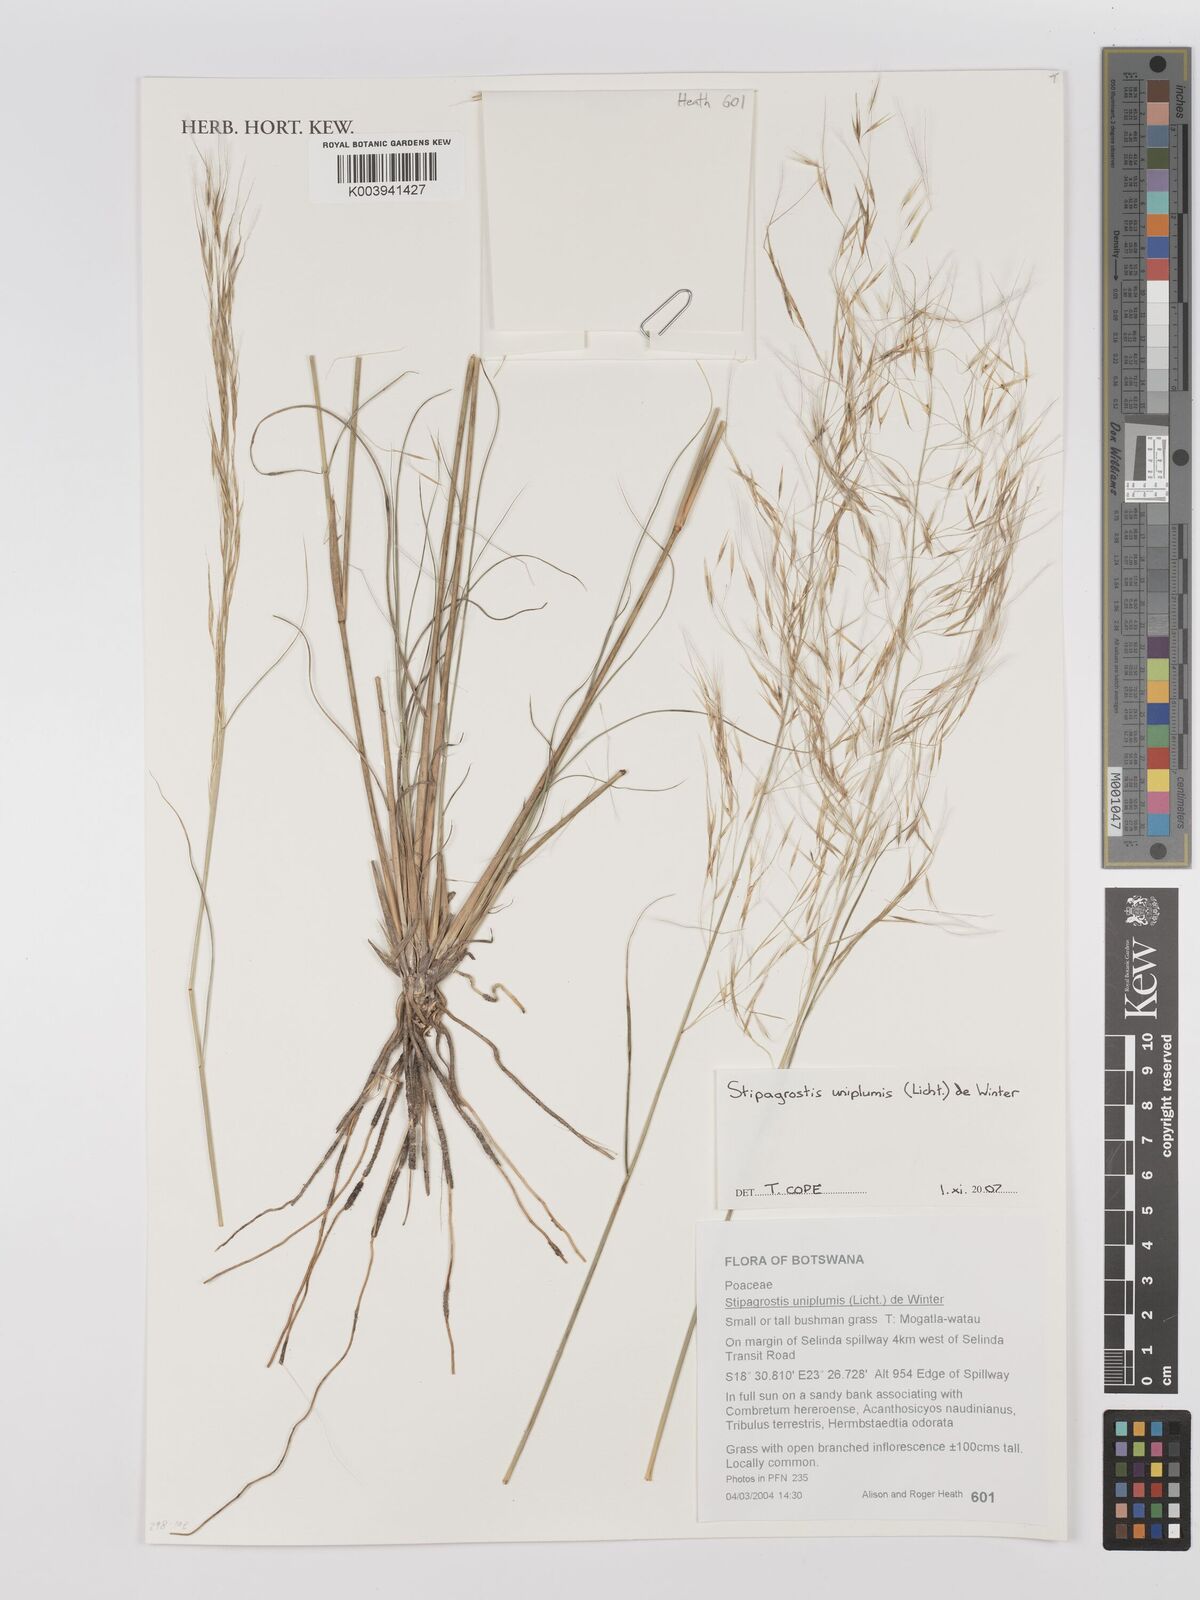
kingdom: Plantae
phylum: Tracheophyta
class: Liliopsida
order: Poales
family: Poaceae
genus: Stipagrostis
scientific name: Stipagrostis uniplumis
